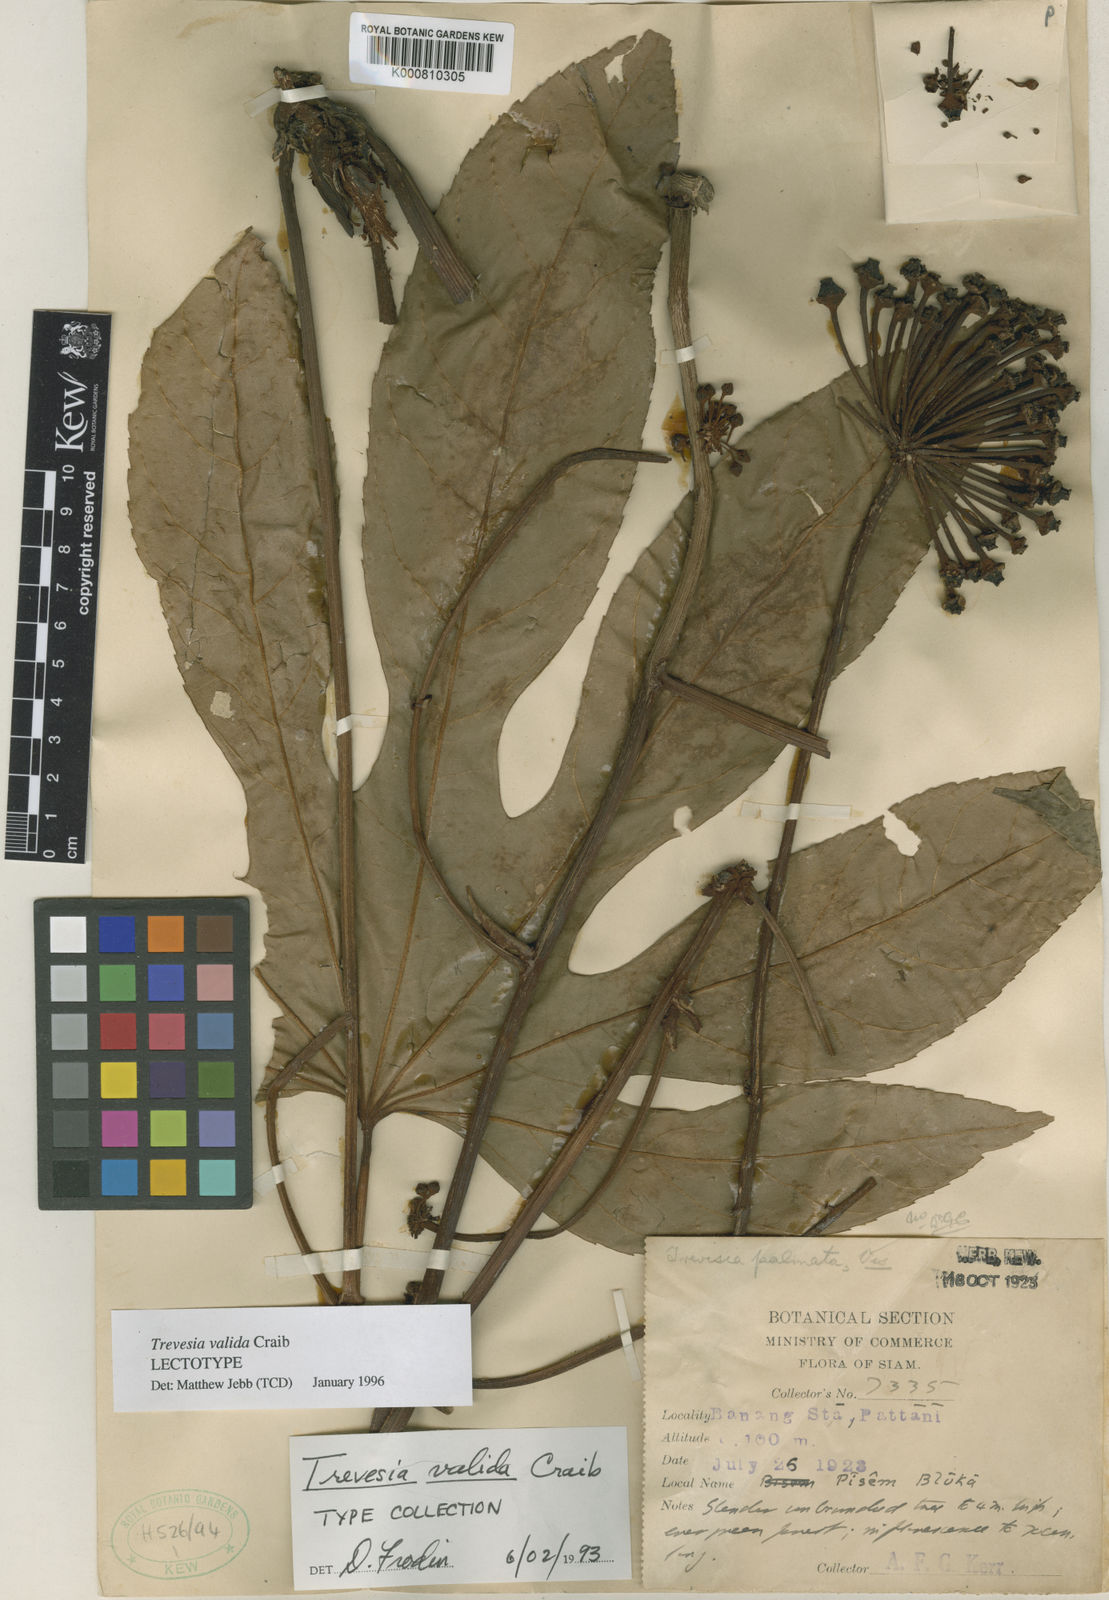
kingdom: Plantae
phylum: Tracheophyta
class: Magnoliopsida
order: Apiales
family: Araliaceae
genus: Trevesia
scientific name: Trevesia valida
